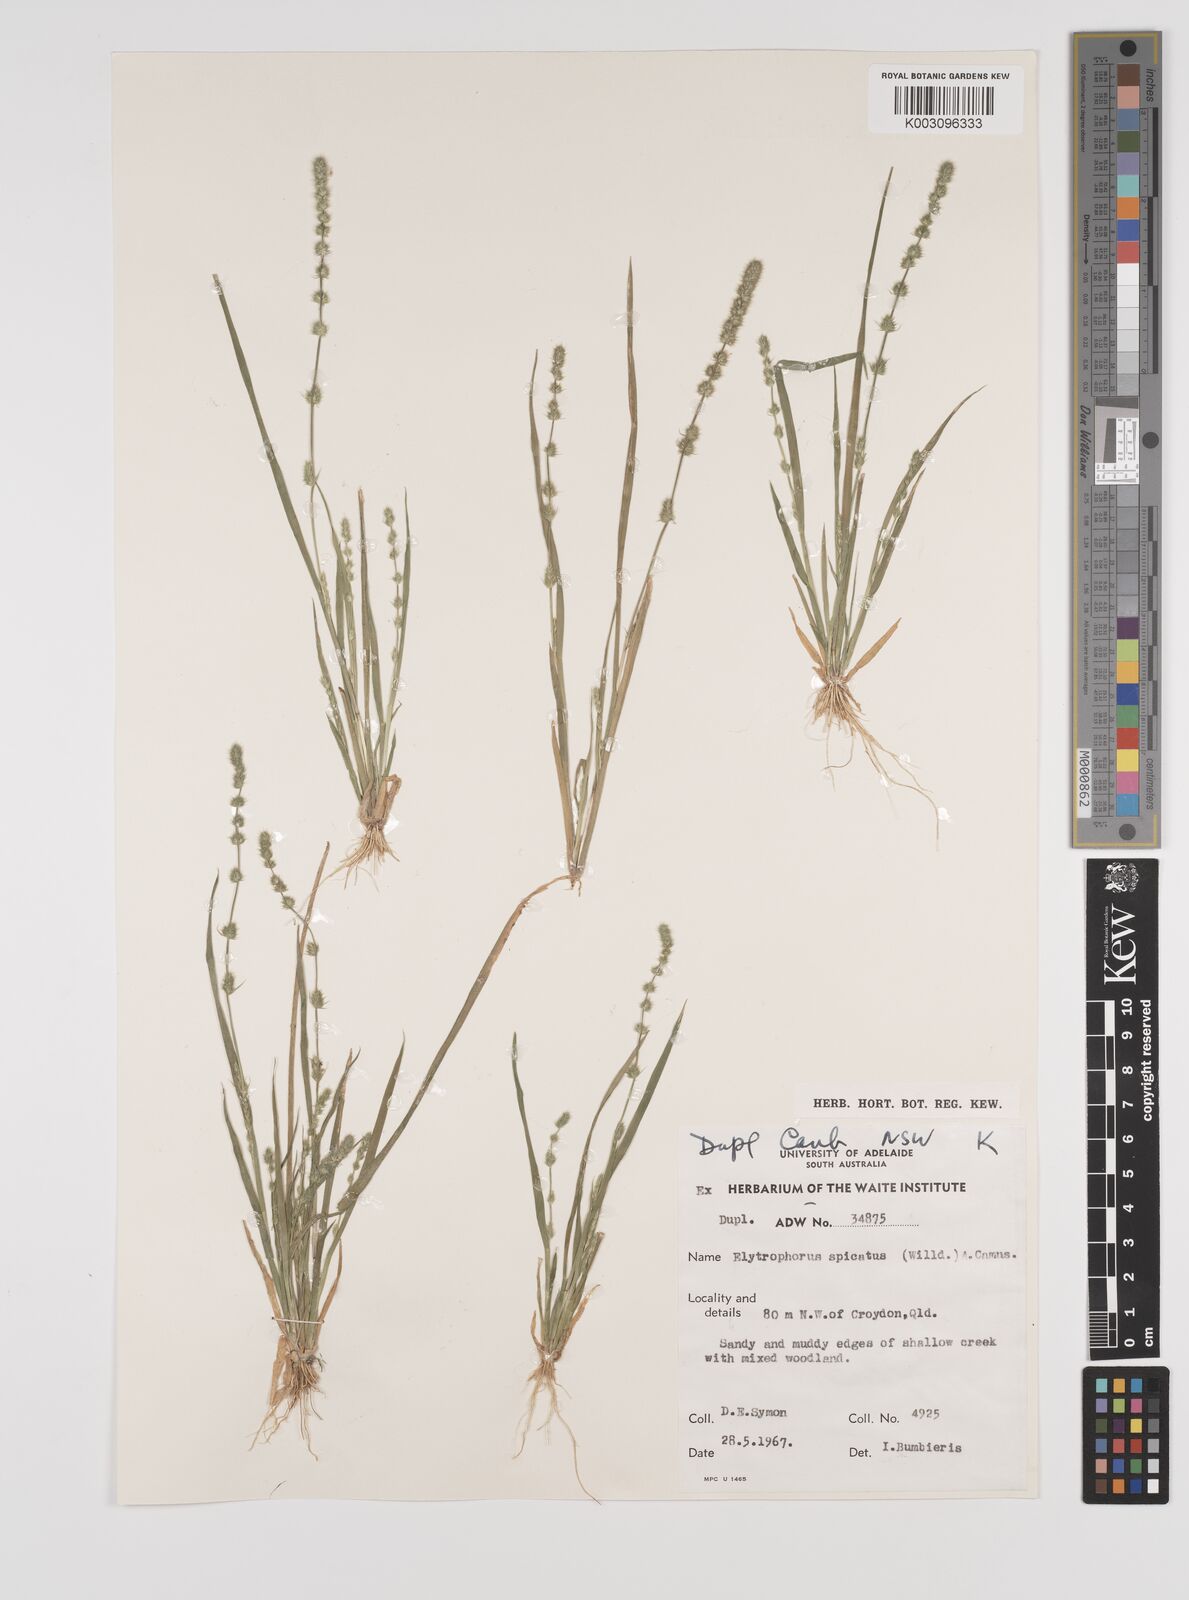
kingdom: Plantae
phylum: Tracheophyta
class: Liliopsida
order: Poales
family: Poaceae
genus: Elytrophorus
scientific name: Elytrophorus spicatus
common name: Spike grass
